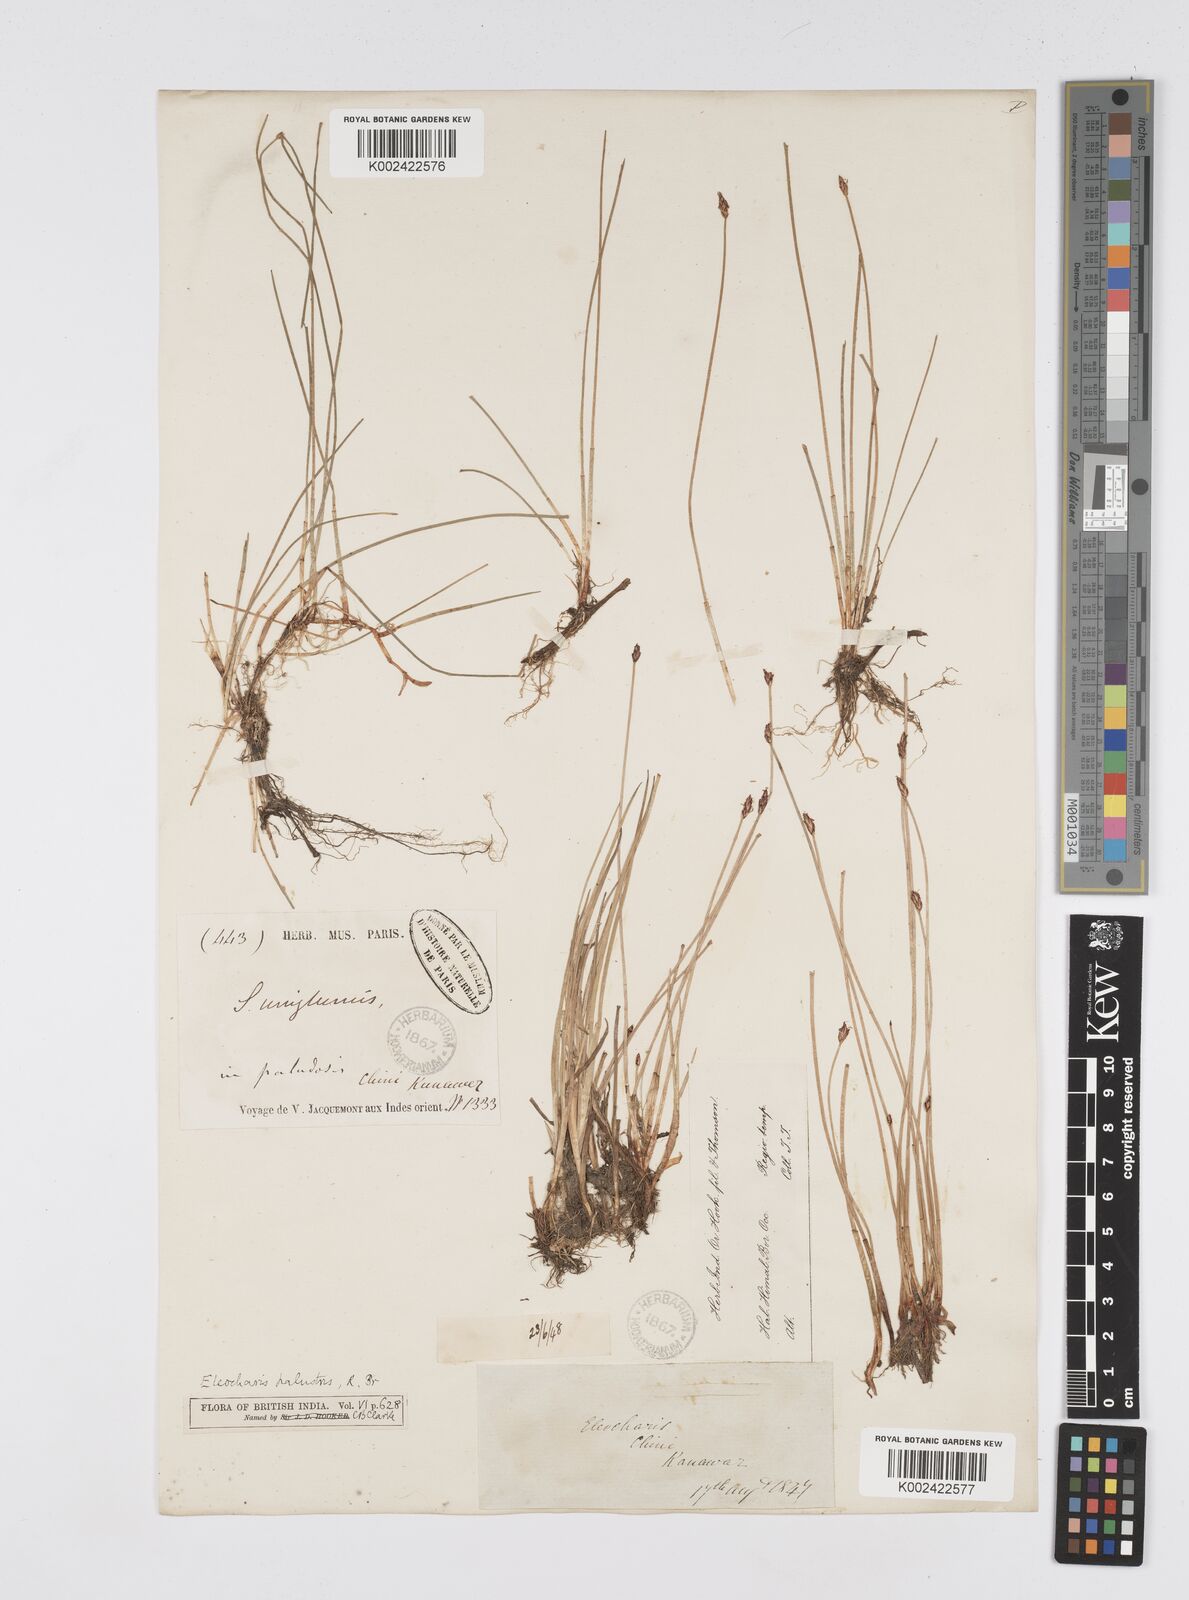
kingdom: Plantae
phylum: Tracheophyta
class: Liliopsida
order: Poales
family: Cyperaceae
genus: Eleocharis
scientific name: Eleocharis uniglumis
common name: Slender spike-rush
